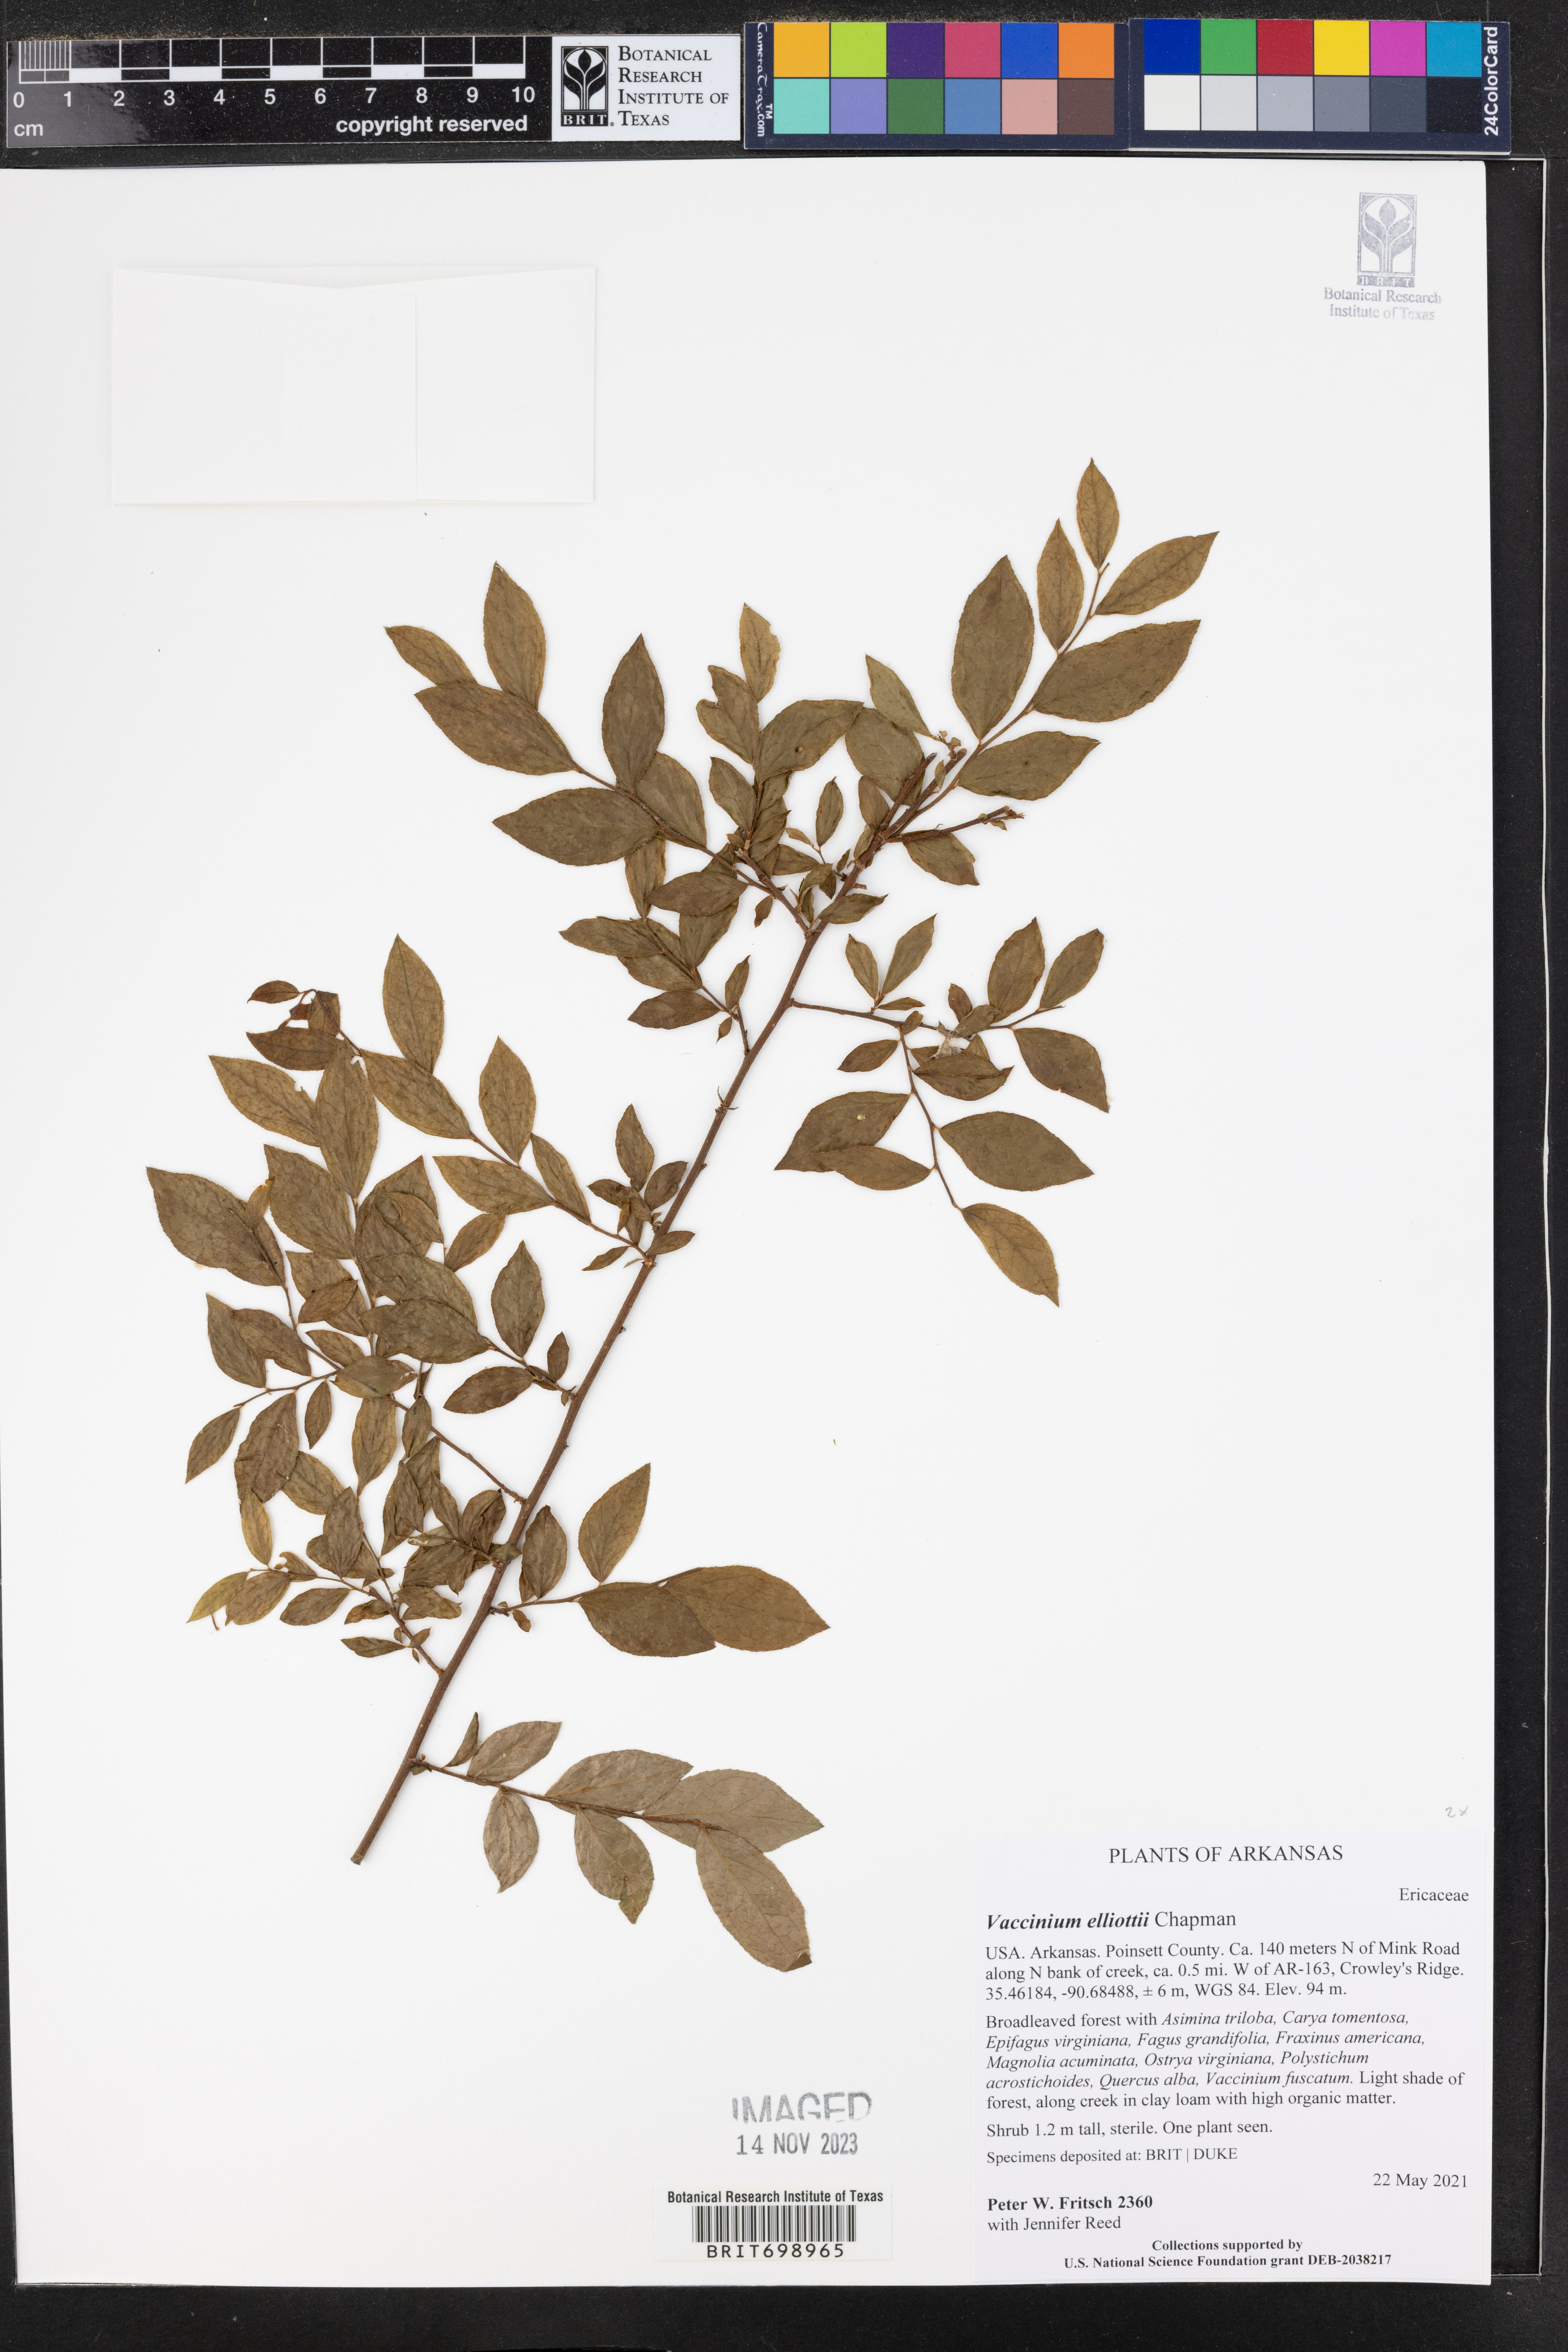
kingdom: Plantae
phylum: Tracheophyta
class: Magnoliopsida
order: Ericales
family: Ericaceae
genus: Vaccinium
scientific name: Vaccinium corymbosum
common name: Blueberry
